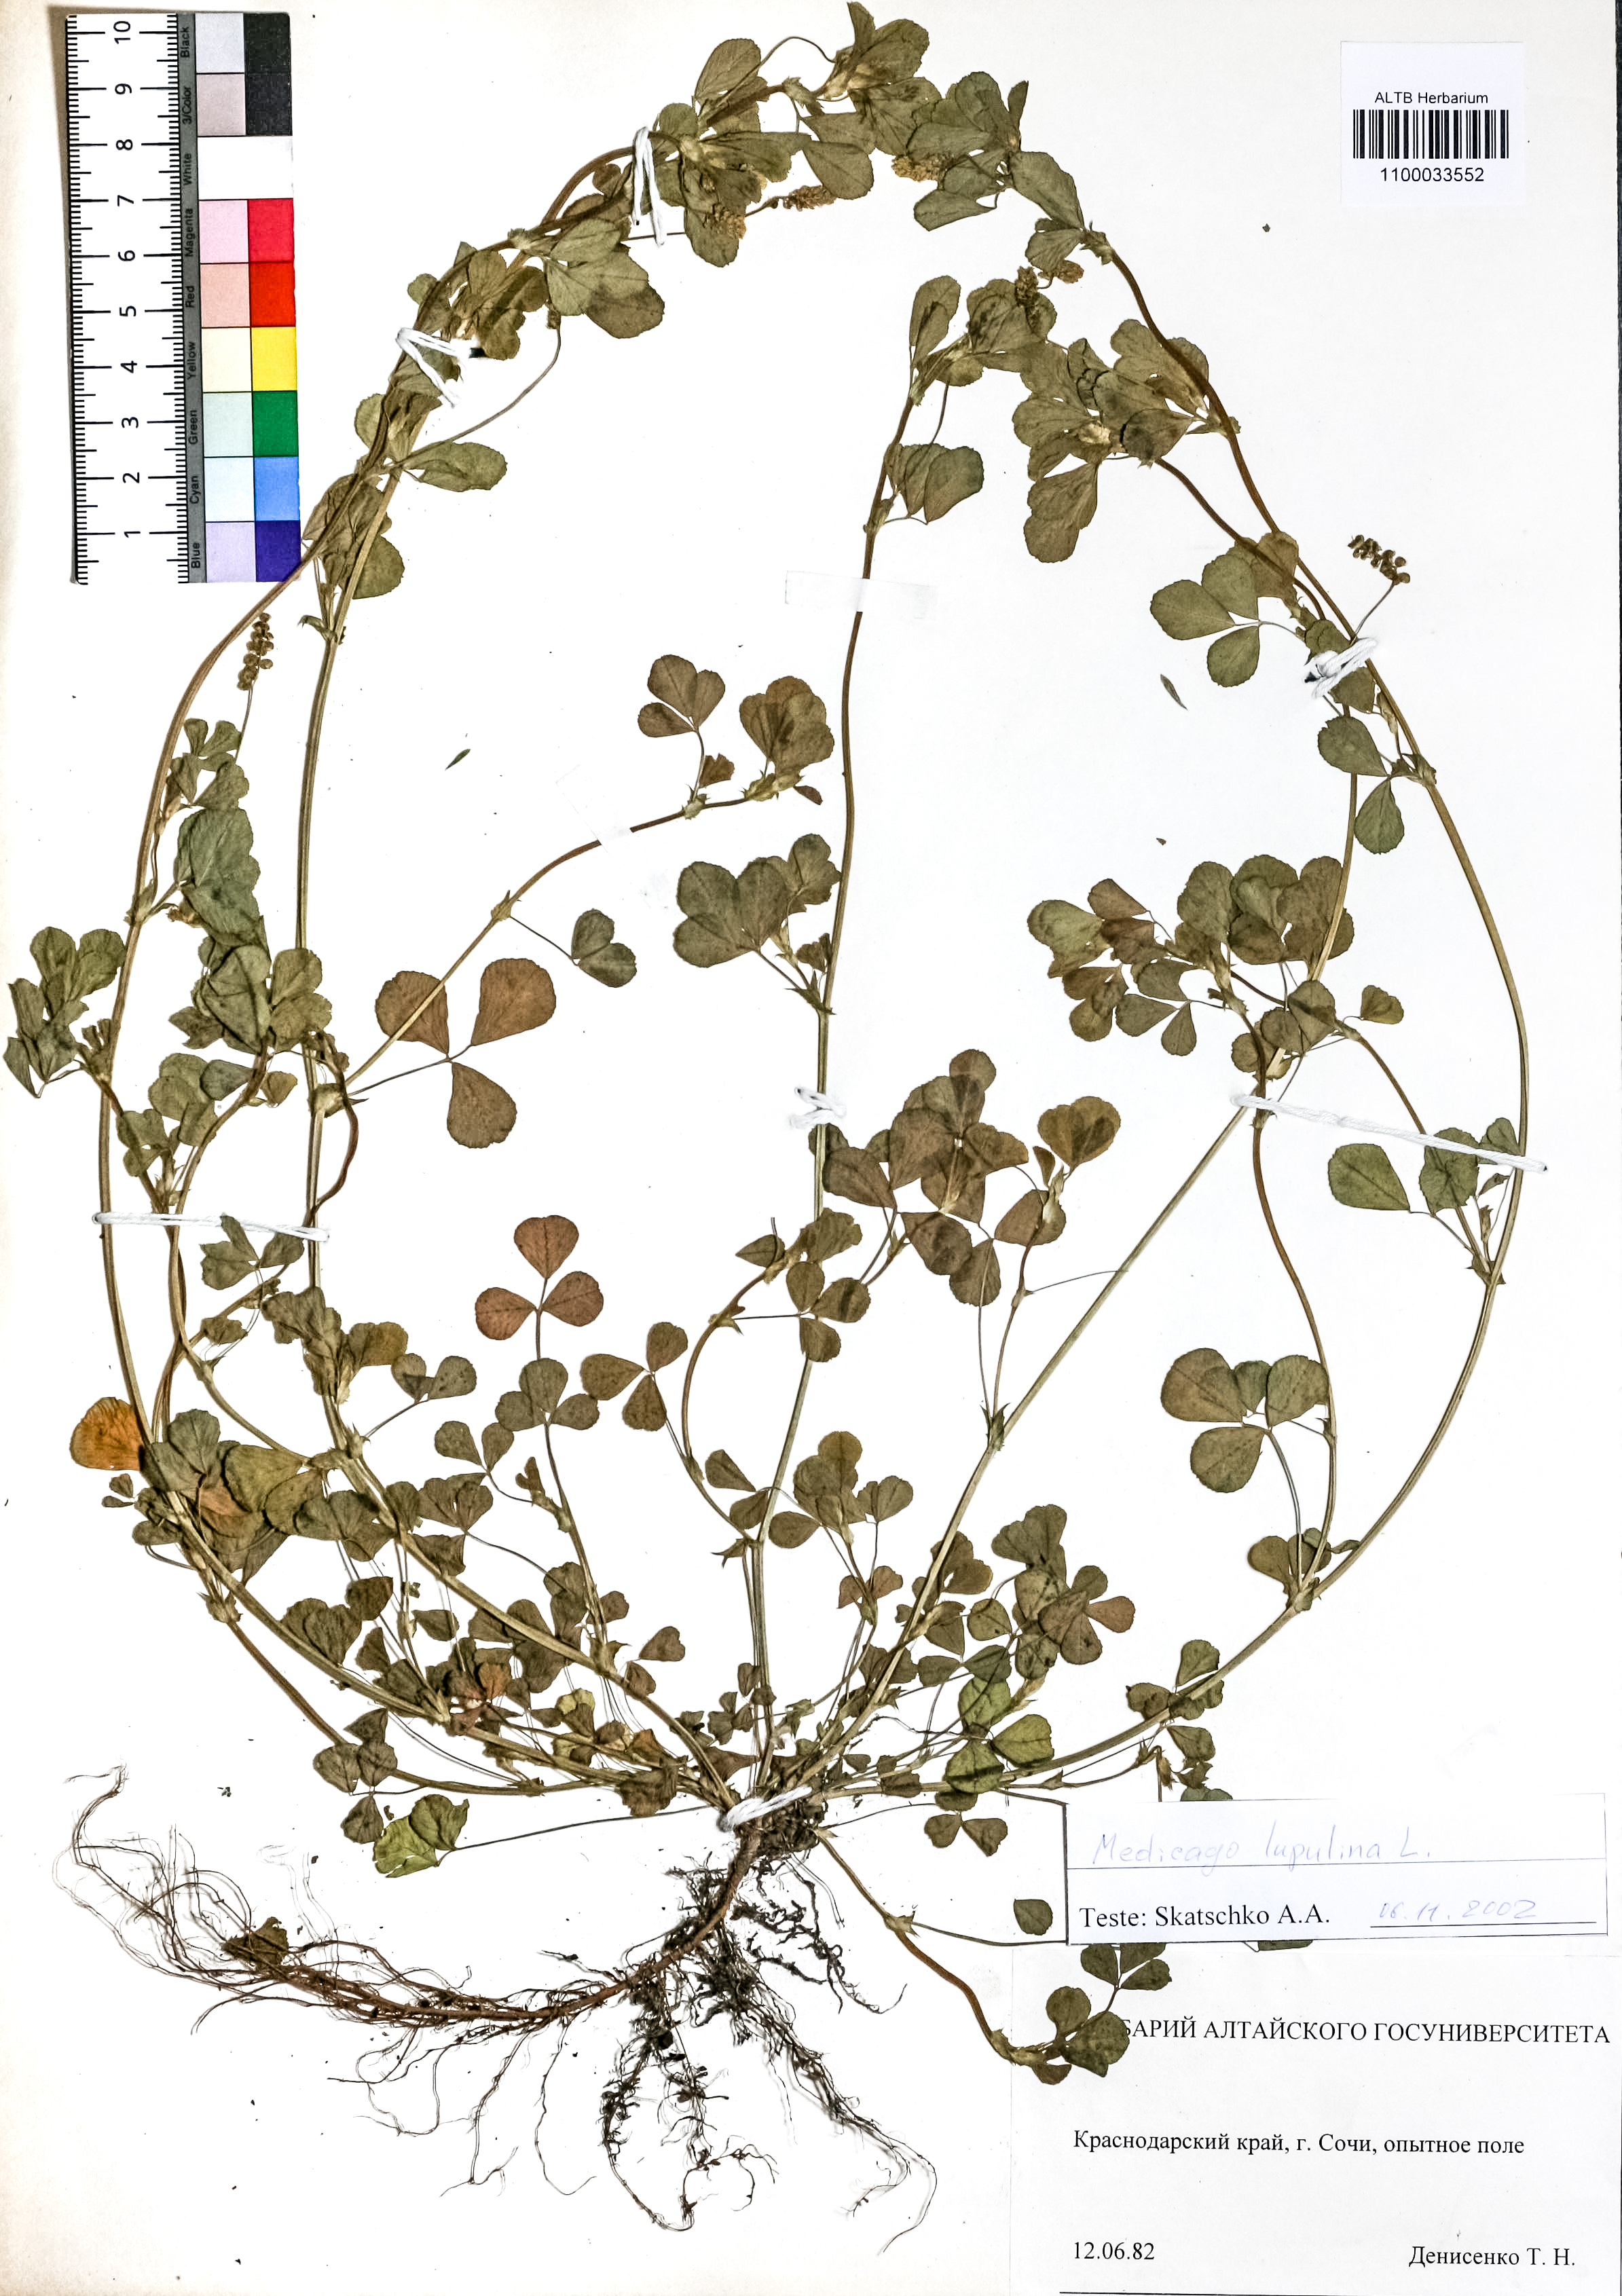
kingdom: Plantae
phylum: Tracheophyta
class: Magnoliopsida
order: Fabales
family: Fabaceae
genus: Medicago
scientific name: Medicago lupulina
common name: Black medick
